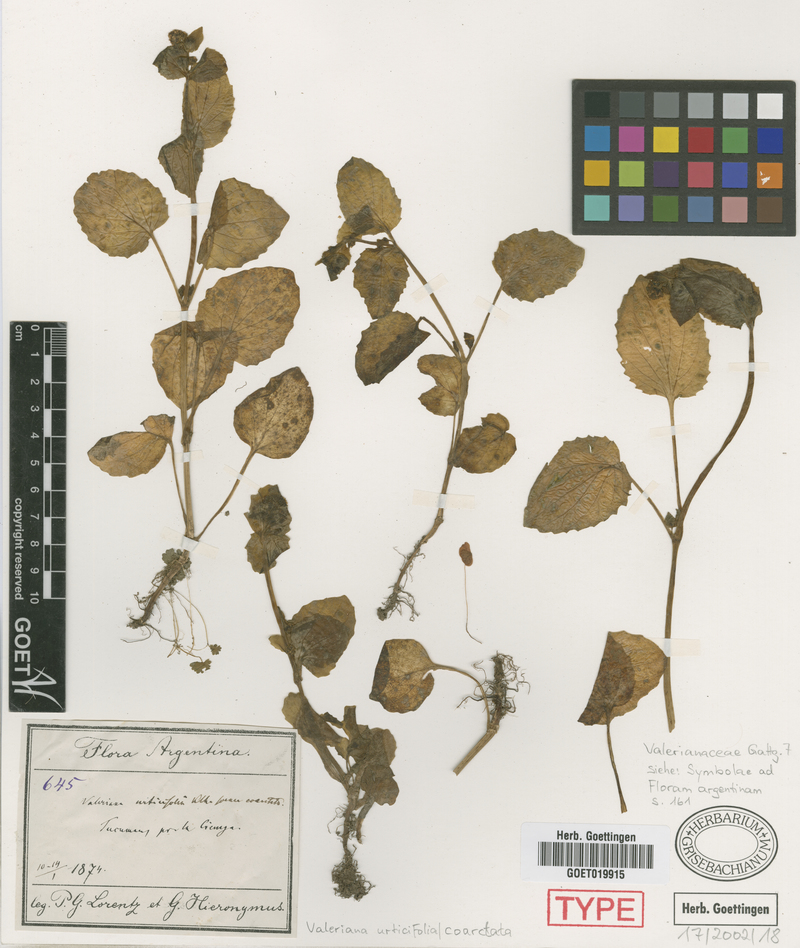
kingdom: Plantae
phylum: Tracheophyta
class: Magnoliopsida
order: Dipsacales
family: Caprifoliaceae
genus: Valeriana
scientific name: Valeriana tafiensis
